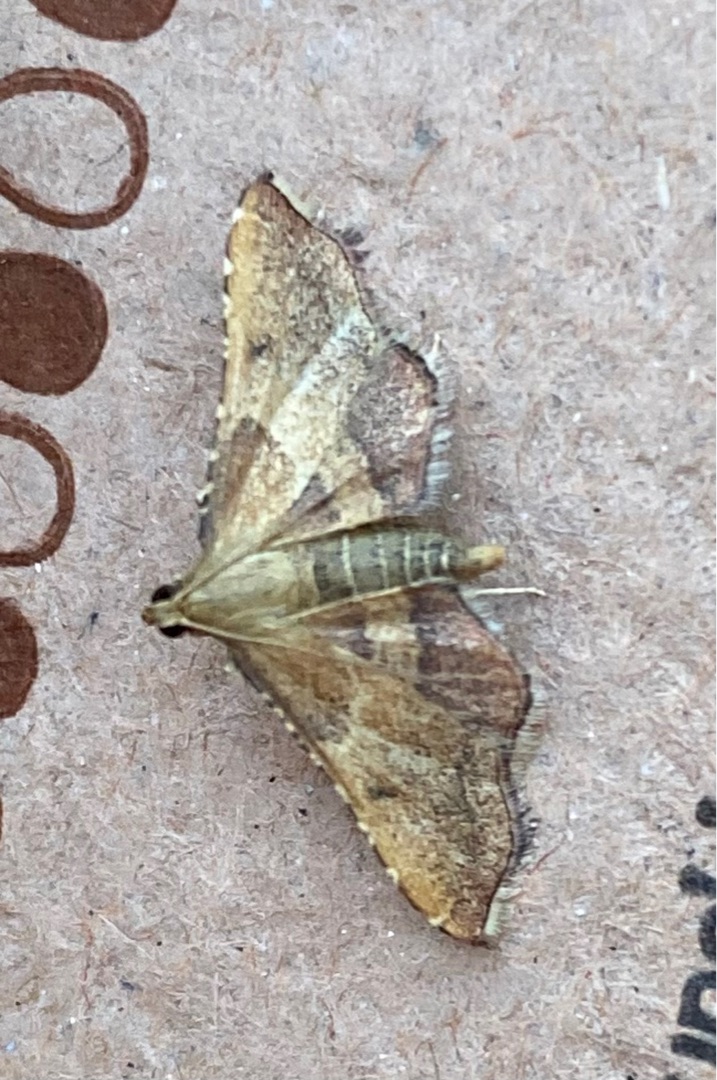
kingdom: Animalia
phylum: Arthropoda
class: Insecta
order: Lepidoptera
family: Pyralidae
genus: Endotricha
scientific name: Endotricha flammealis
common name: Løvkrathalvmøl
